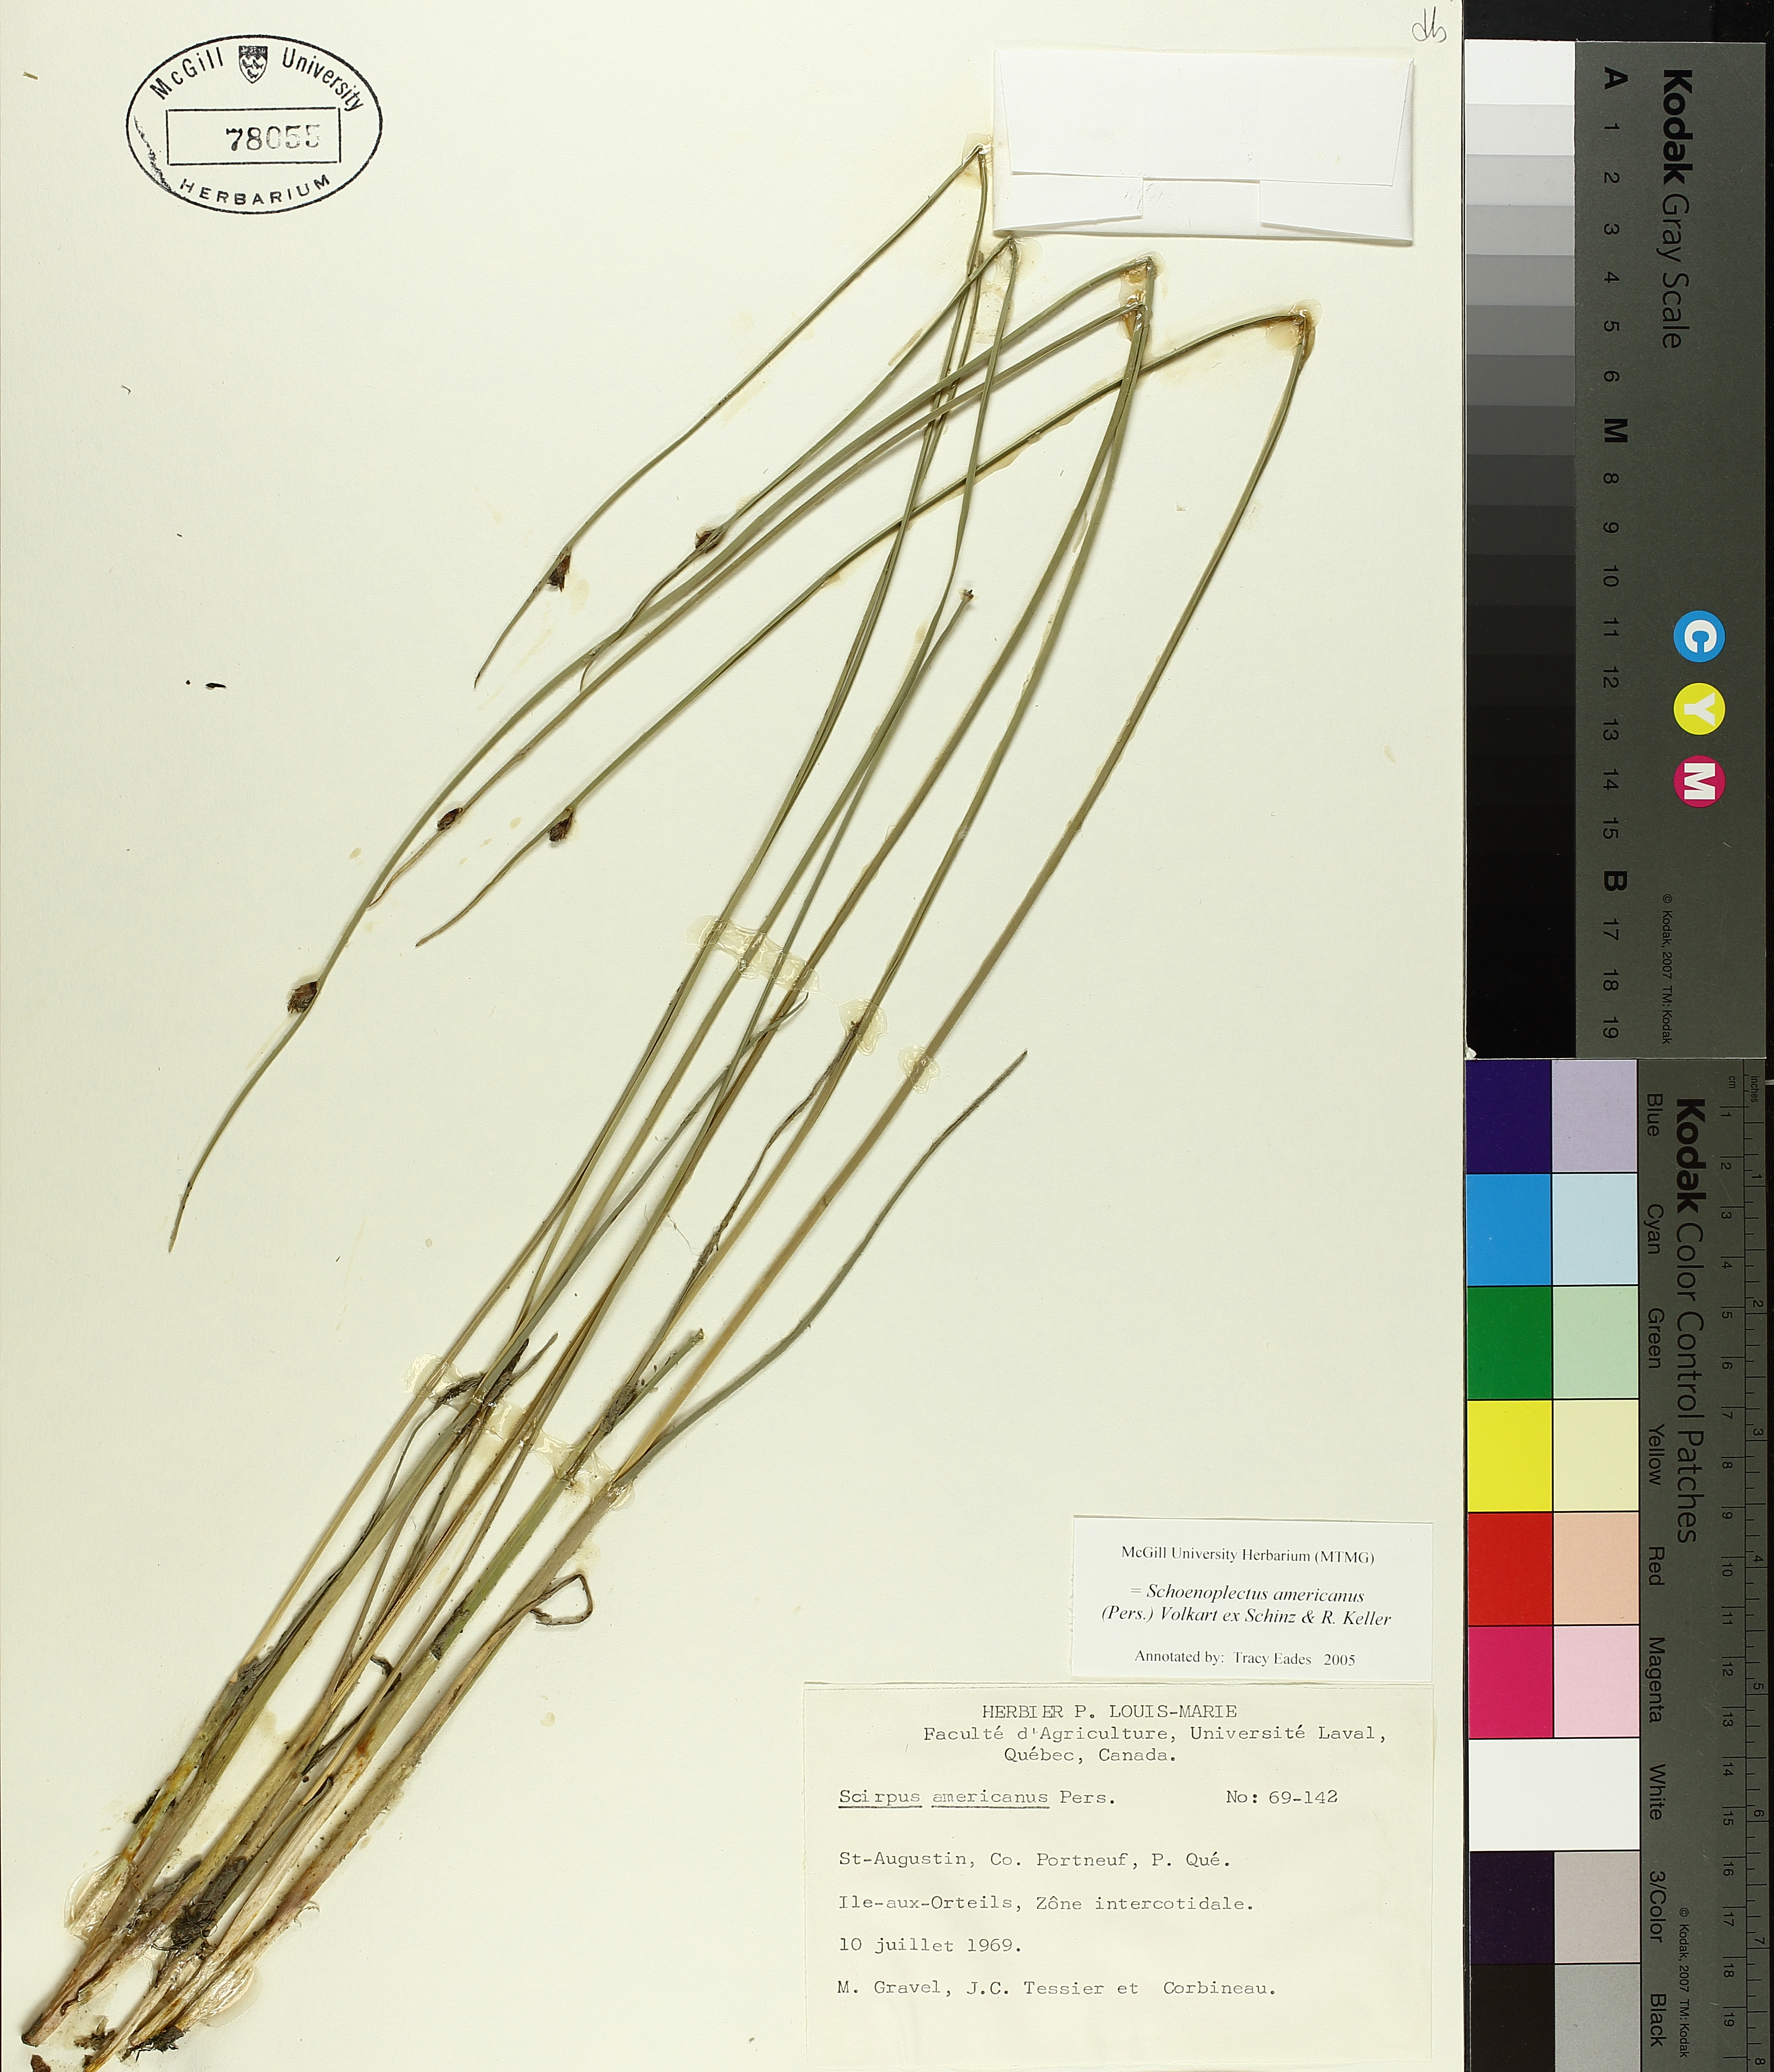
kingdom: Plantae
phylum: Tracheophyta
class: Liliopsida
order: Poales
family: Cyperaceae
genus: Schoenoplectus
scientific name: Schoenoplectus americanus
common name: American three-square bulrush
